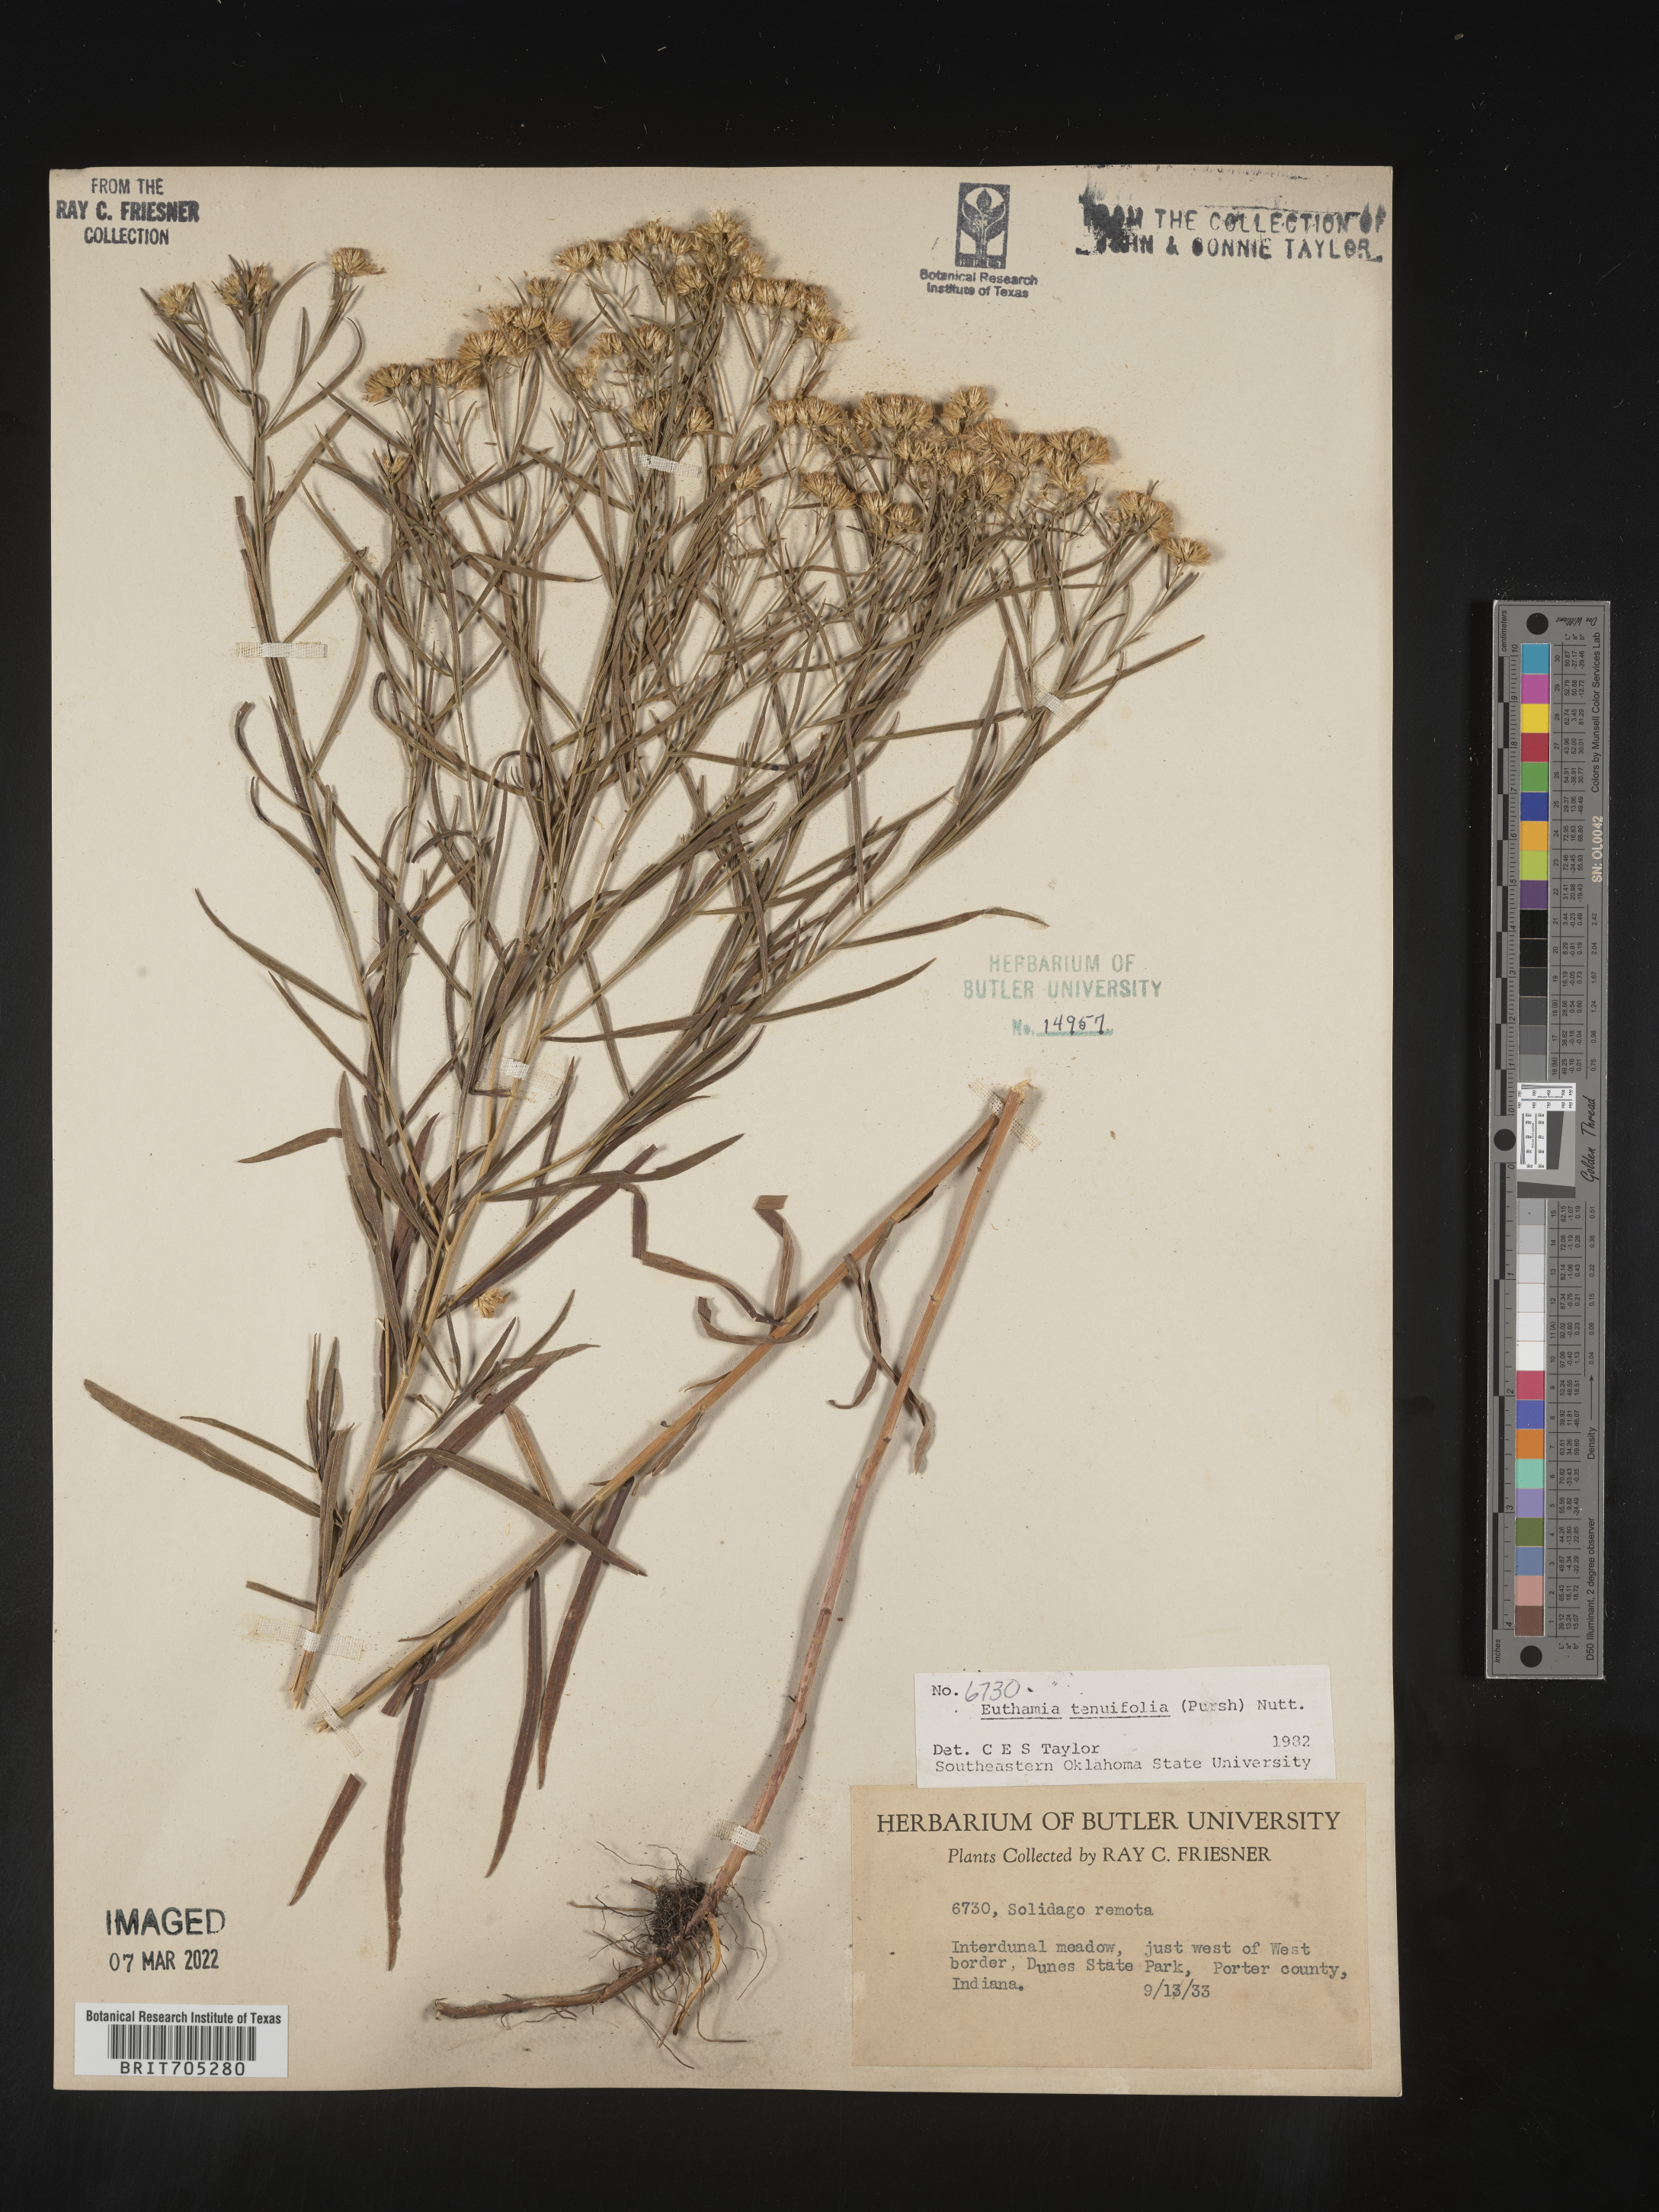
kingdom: Plantae
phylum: Tracheophyta
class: Magnoliopsida
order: Asterales
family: Asteraceae
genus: Euthamia
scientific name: Euthamia gymnospermoides
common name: Great plains goldentop
